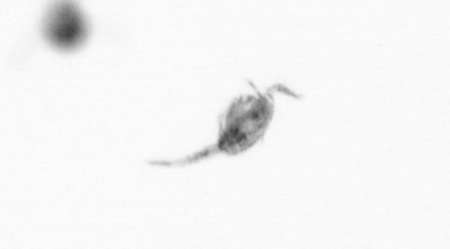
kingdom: Animalia
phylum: Arthropoda
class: Copepoda
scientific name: Copepoda
